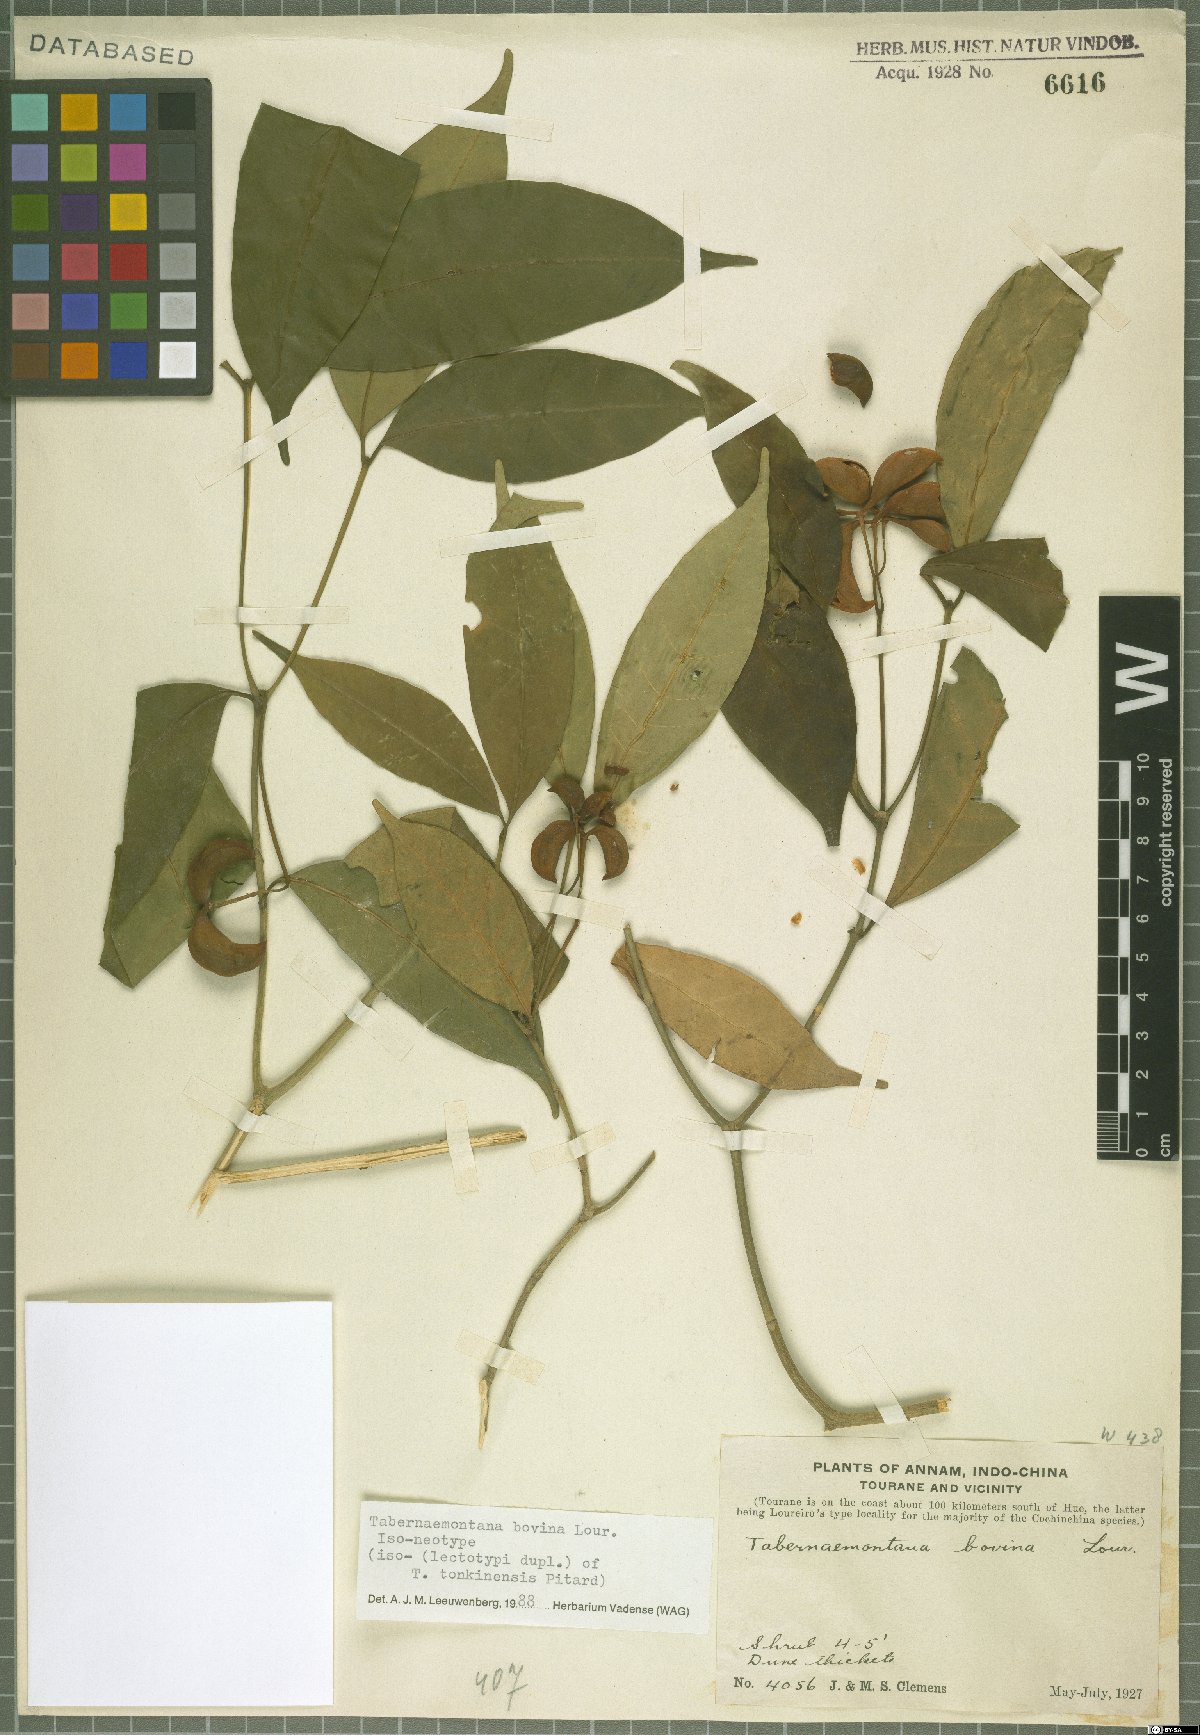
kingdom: Plantae
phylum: Tracheophyta
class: Magnoliopsida
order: Gentianales
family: Apocynaceae
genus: Tabernaemontana
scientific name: Tabernaemontana bovina
